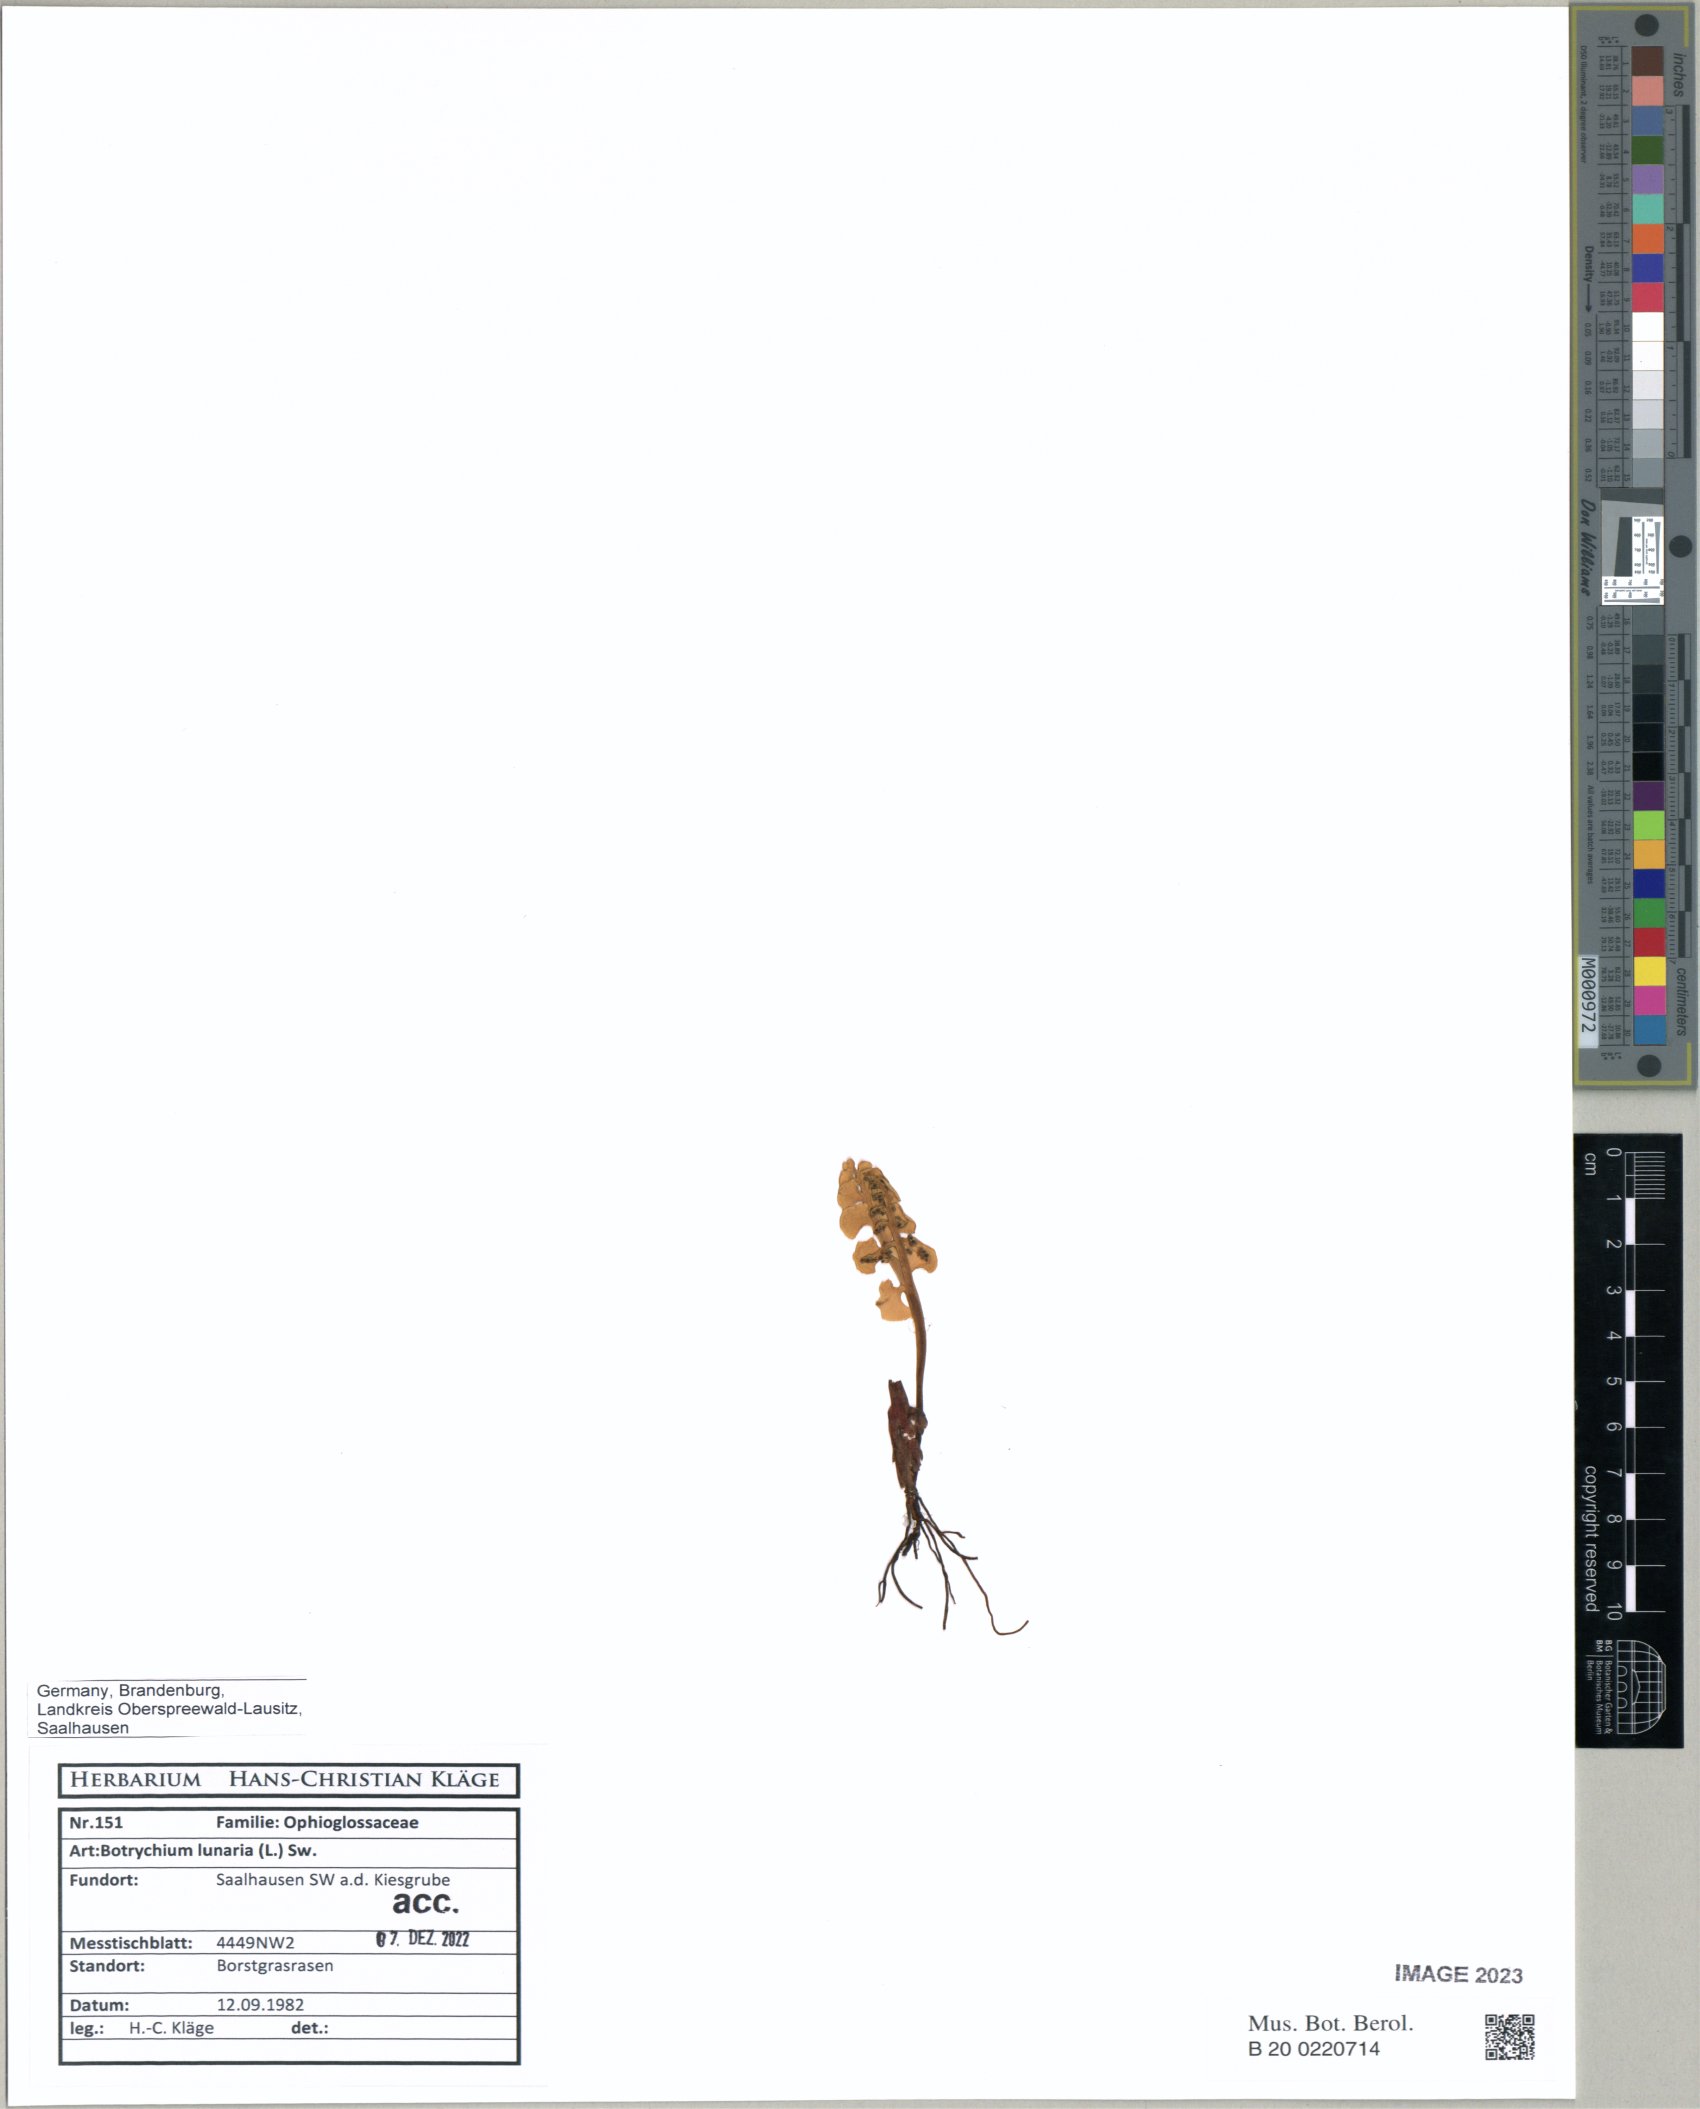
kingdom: Plantae
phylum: Tracheophyta
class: Polypodiopsida
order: Ophioglossales
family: Ophioglossaceae
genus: Botrychium
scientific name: Botrychium lunaria
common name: Moonwort
